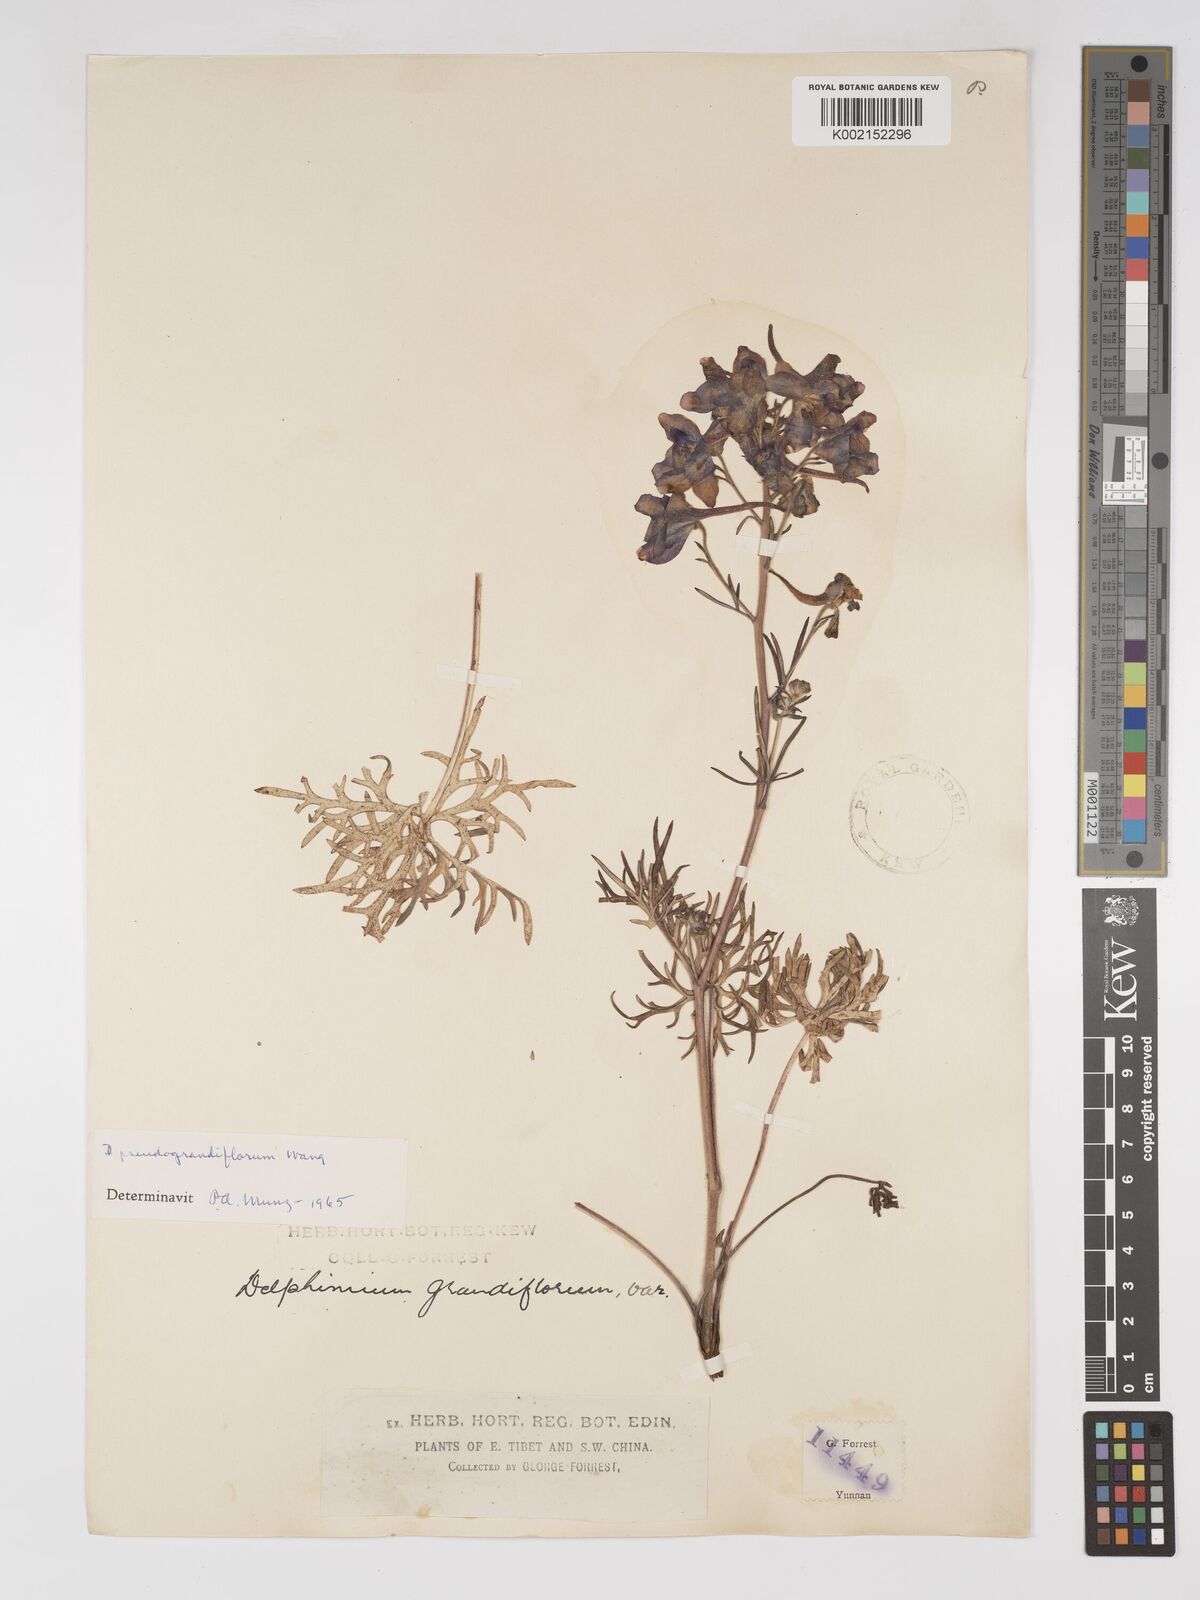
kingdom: Plantae
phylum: Tracheophyta
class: Magnoliopsida
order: Ranunculales
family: Ranunculaceae
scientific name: Ranunculaceae
